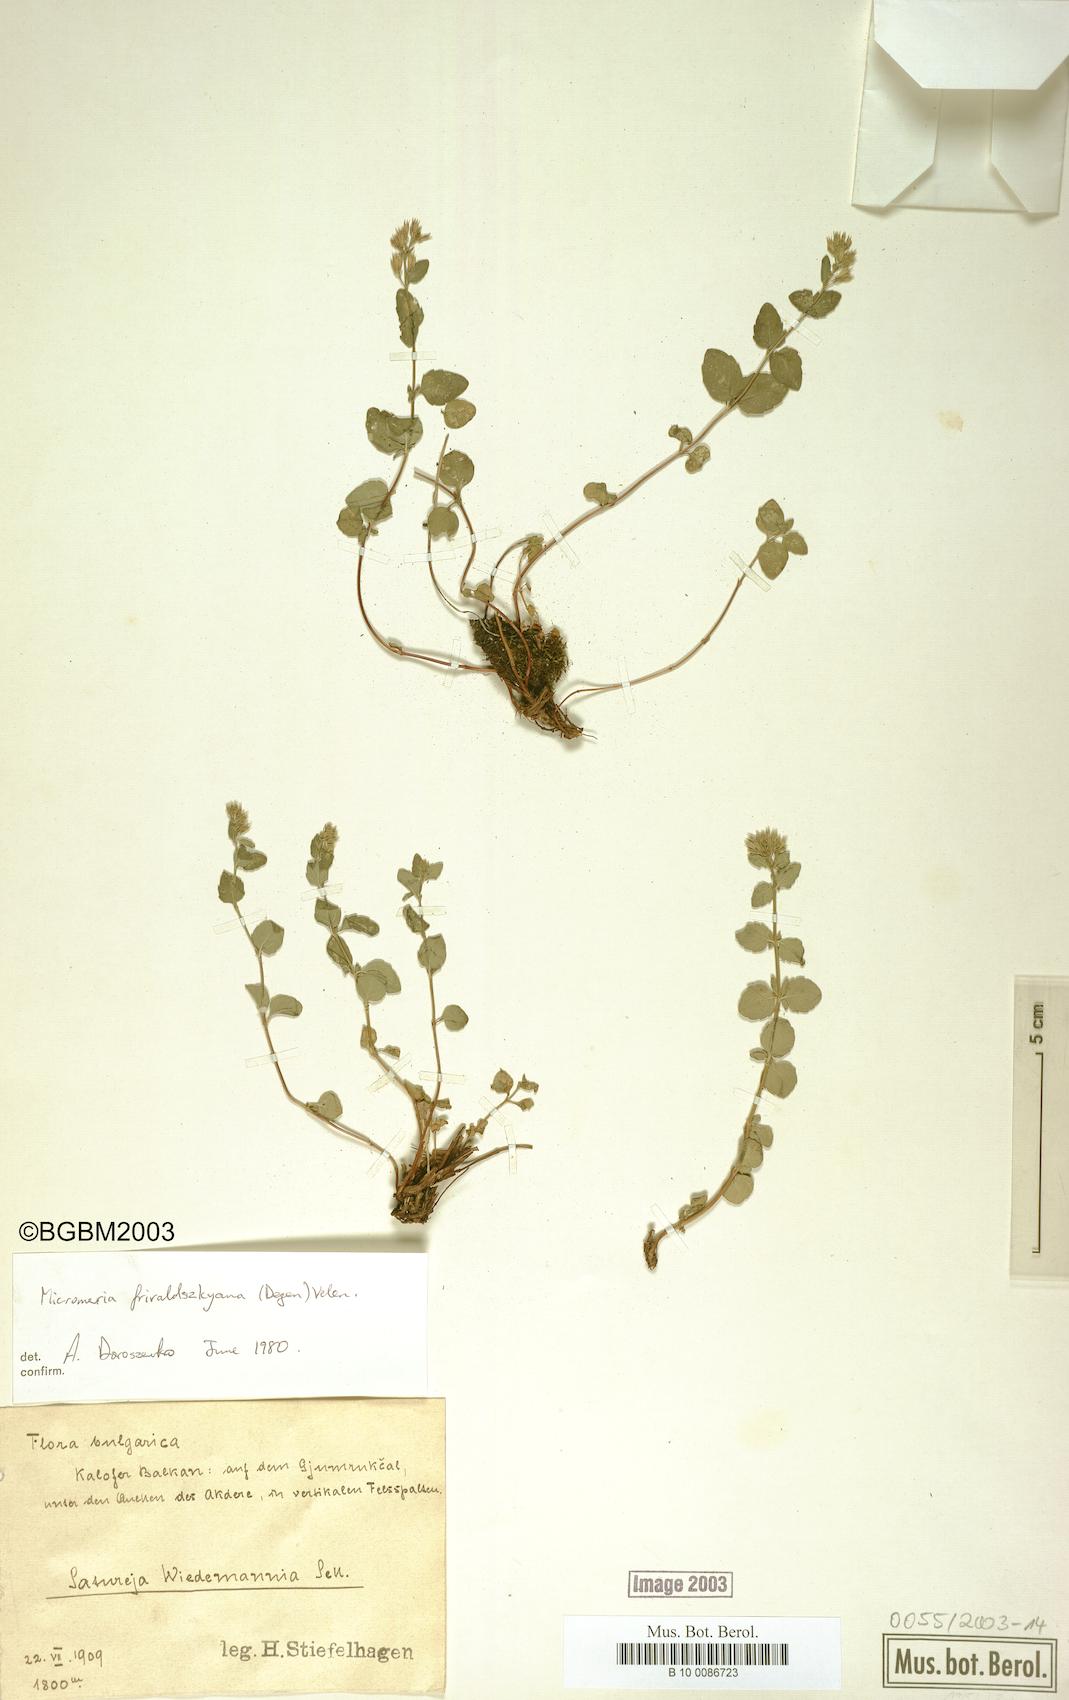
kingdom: Plantae
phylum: Tracheophyta
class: Magnoliopsida
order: Lamiales
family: Lamiaceae
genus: Clinopodium
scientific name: Clinopodium frivaldszkyanum
